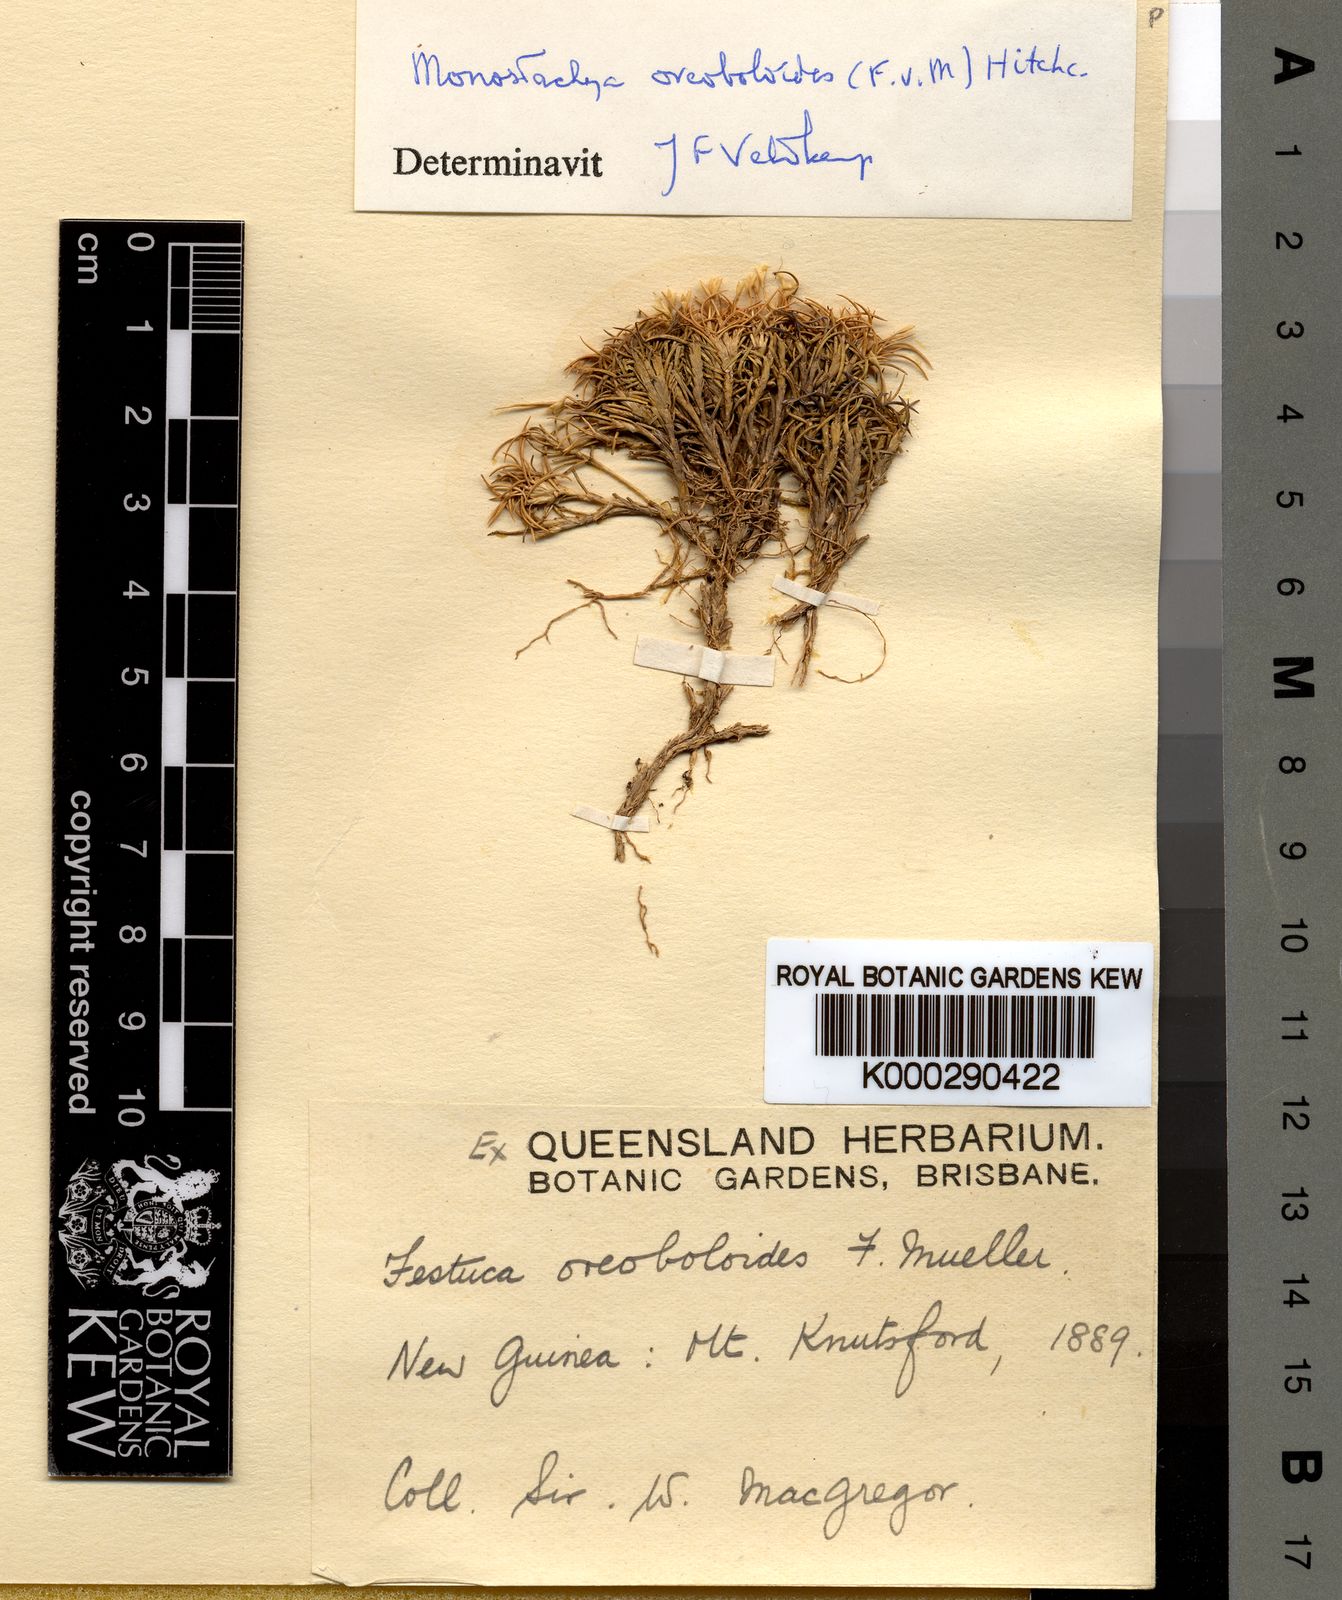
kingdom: Plantae
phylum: Tracheophyta
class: Liliopsida
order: Poales
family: Poaceae
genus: Rytidosperma
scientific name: Rytidosperma oreoboloides
